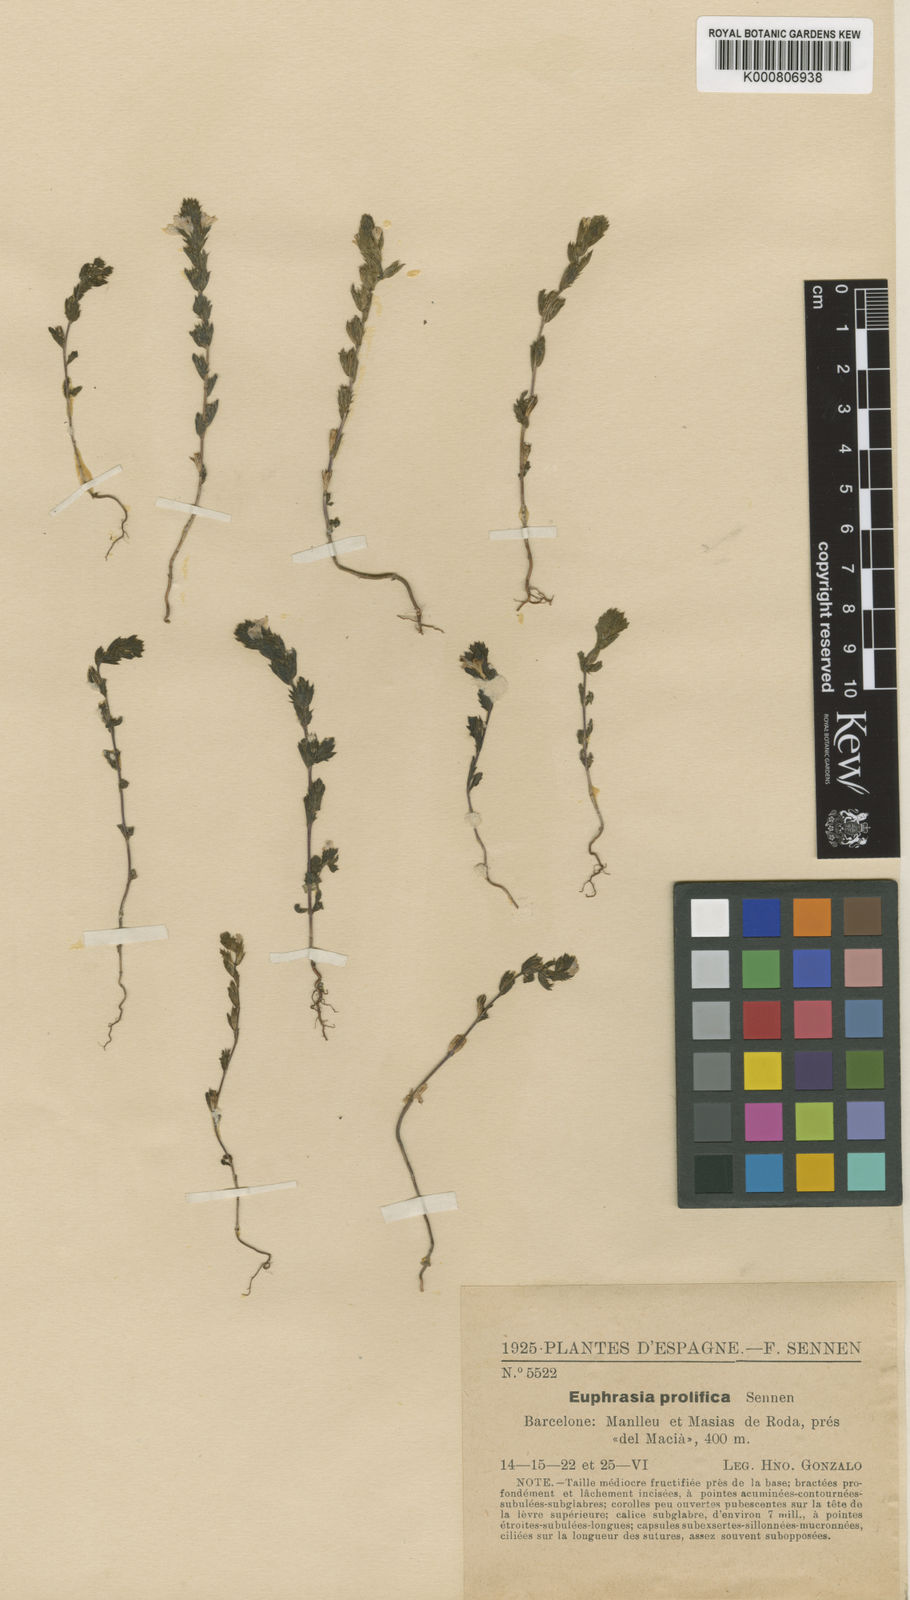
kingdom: Plantae
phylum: Tracheophyta
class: Magnoliopsida
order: Lamiales
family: Orobanchaceae
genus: Euphrasia
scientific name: Euphrasia prolifica
